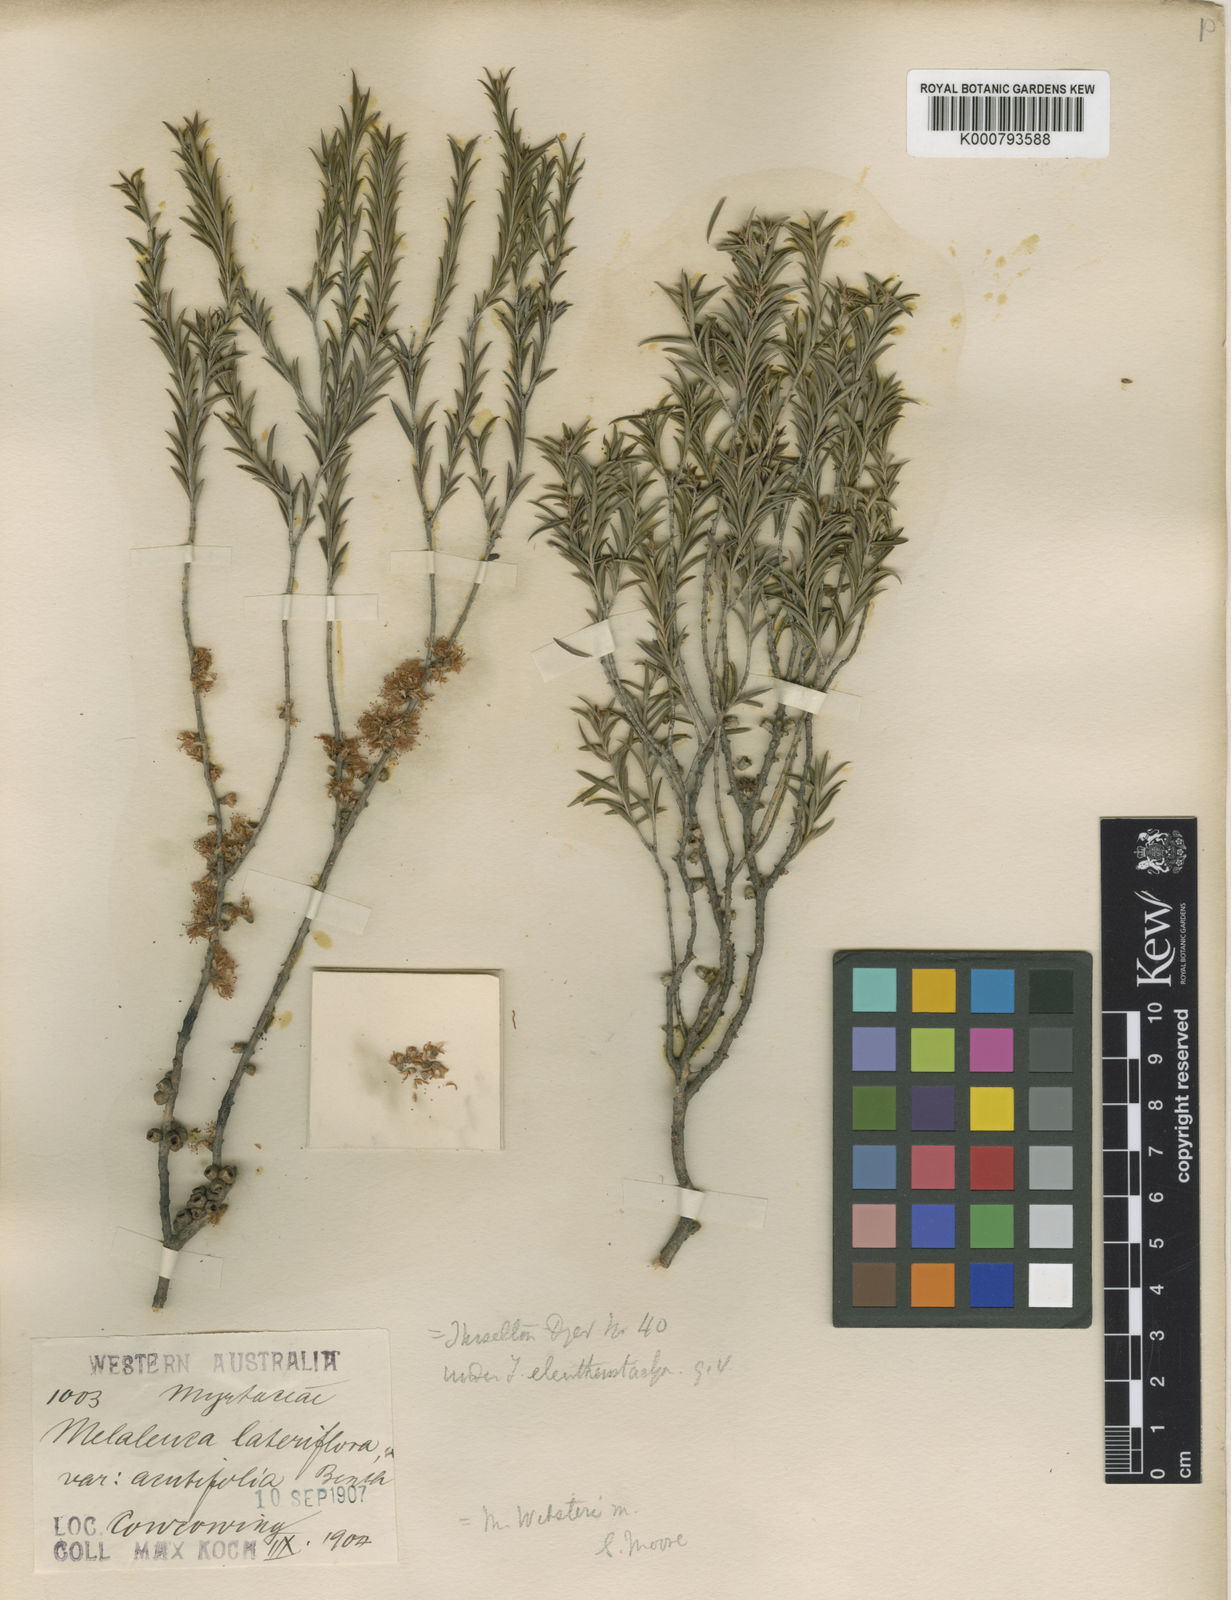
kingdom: Plantae
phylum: Tracheophyta
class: Magnoliopsida
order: Myrtales
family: Myrtaceae
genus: Melaleuca
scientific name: Melaleuca acuminata
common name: Mallee honey myrtle
